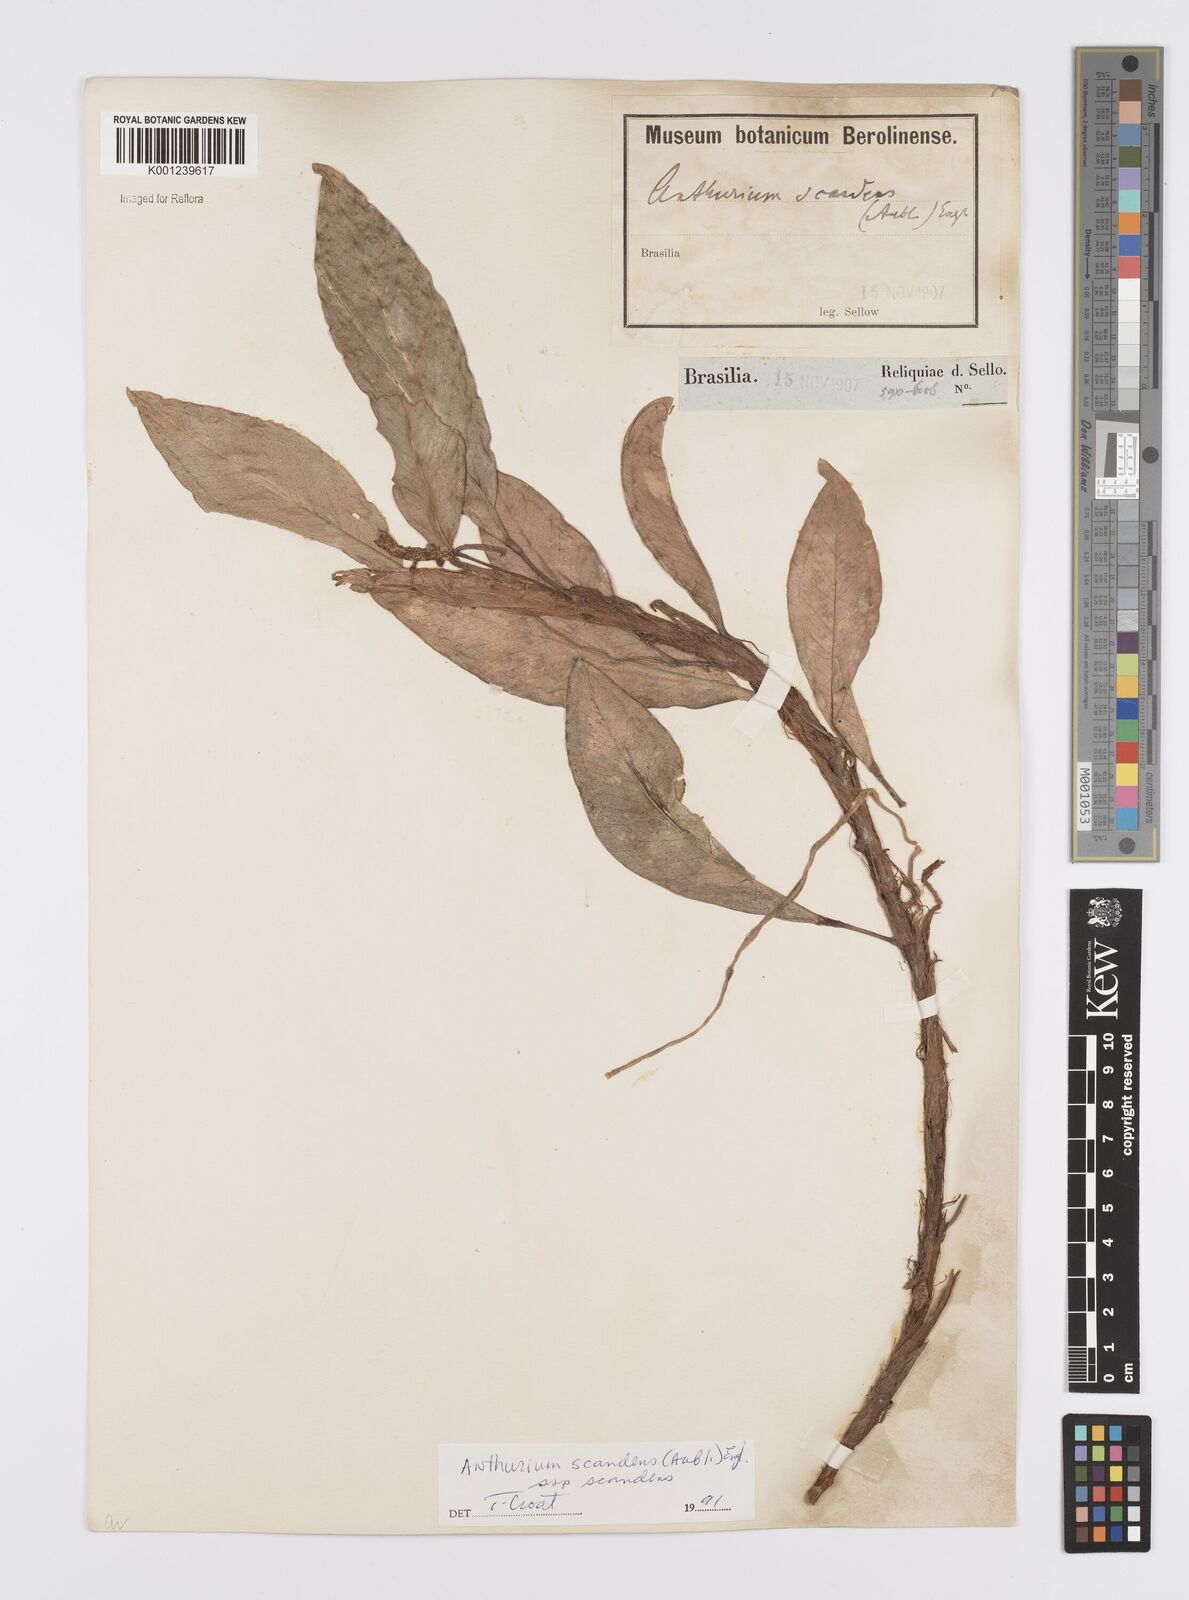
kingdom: Plantae
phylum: Tracheophyta
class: Liliopsida
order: Alismatales
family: Araceae
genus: Anthurium
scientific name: Anthurium scandens
